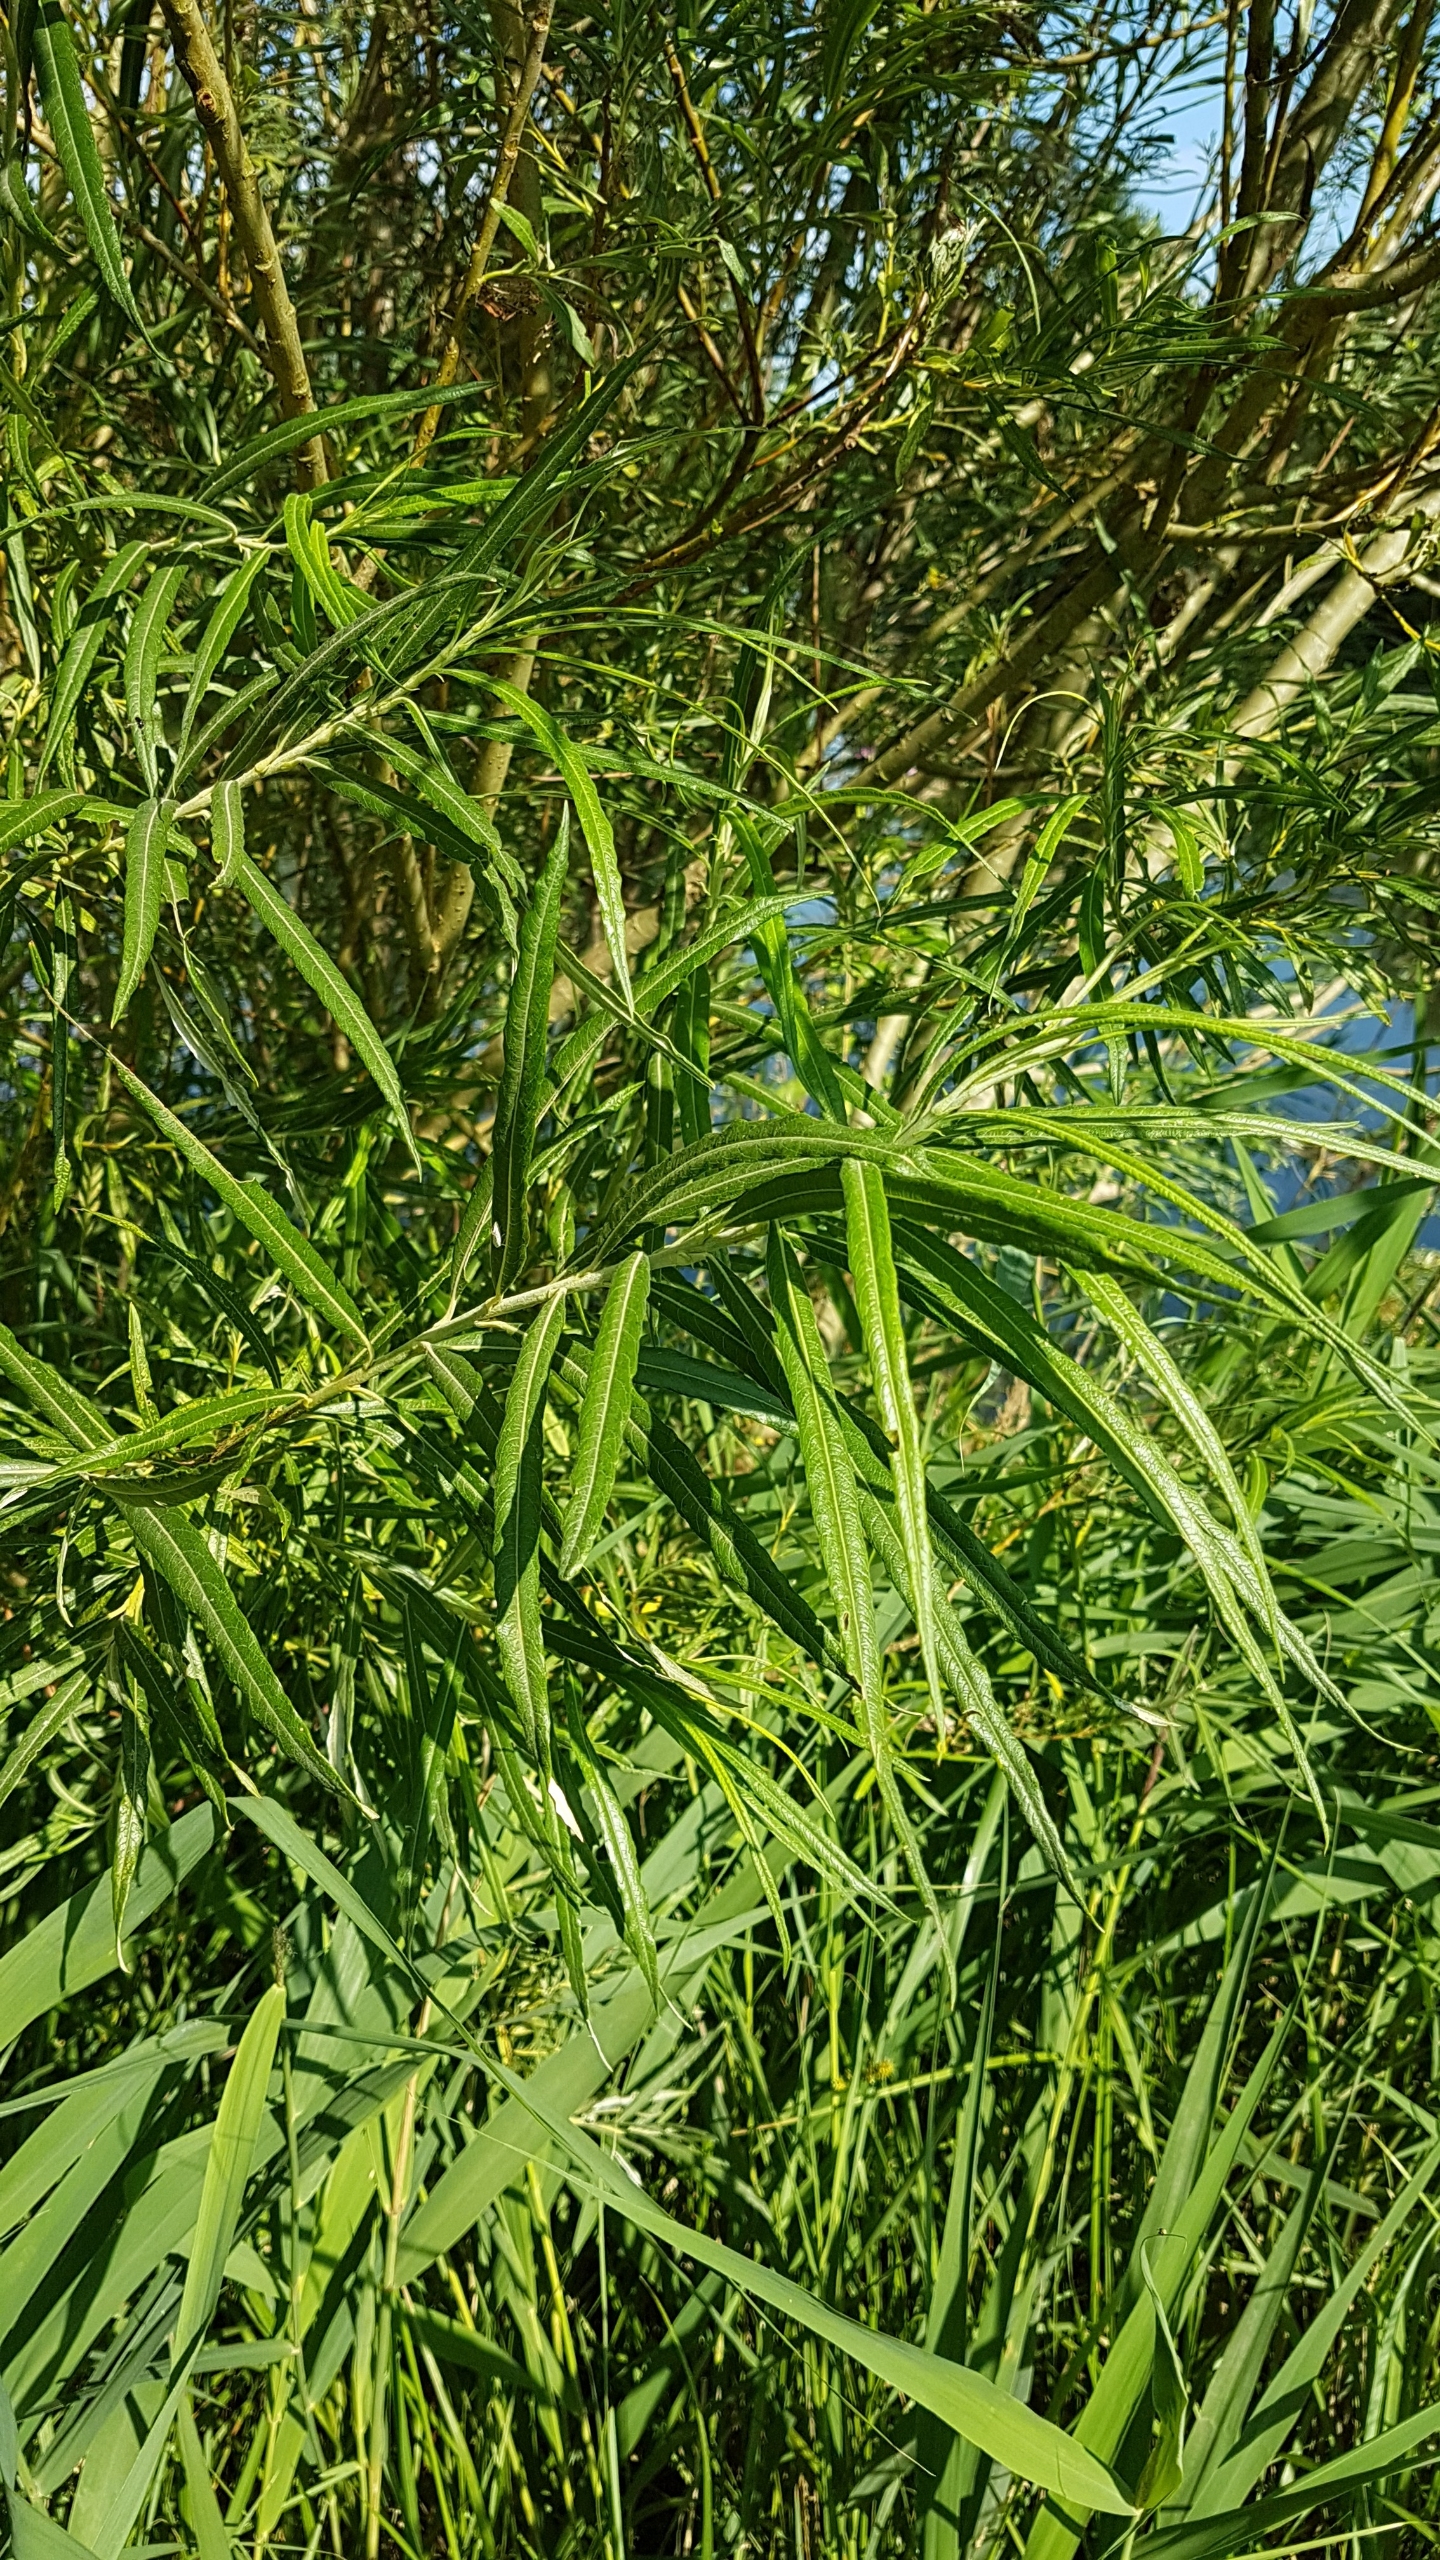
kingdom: Plantae
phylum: Tracheophyta
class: Magnoliopsida
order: Malpighiales
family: Salicaceae
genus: Salix
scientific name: Salix viminalis
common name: Bånd-pil
